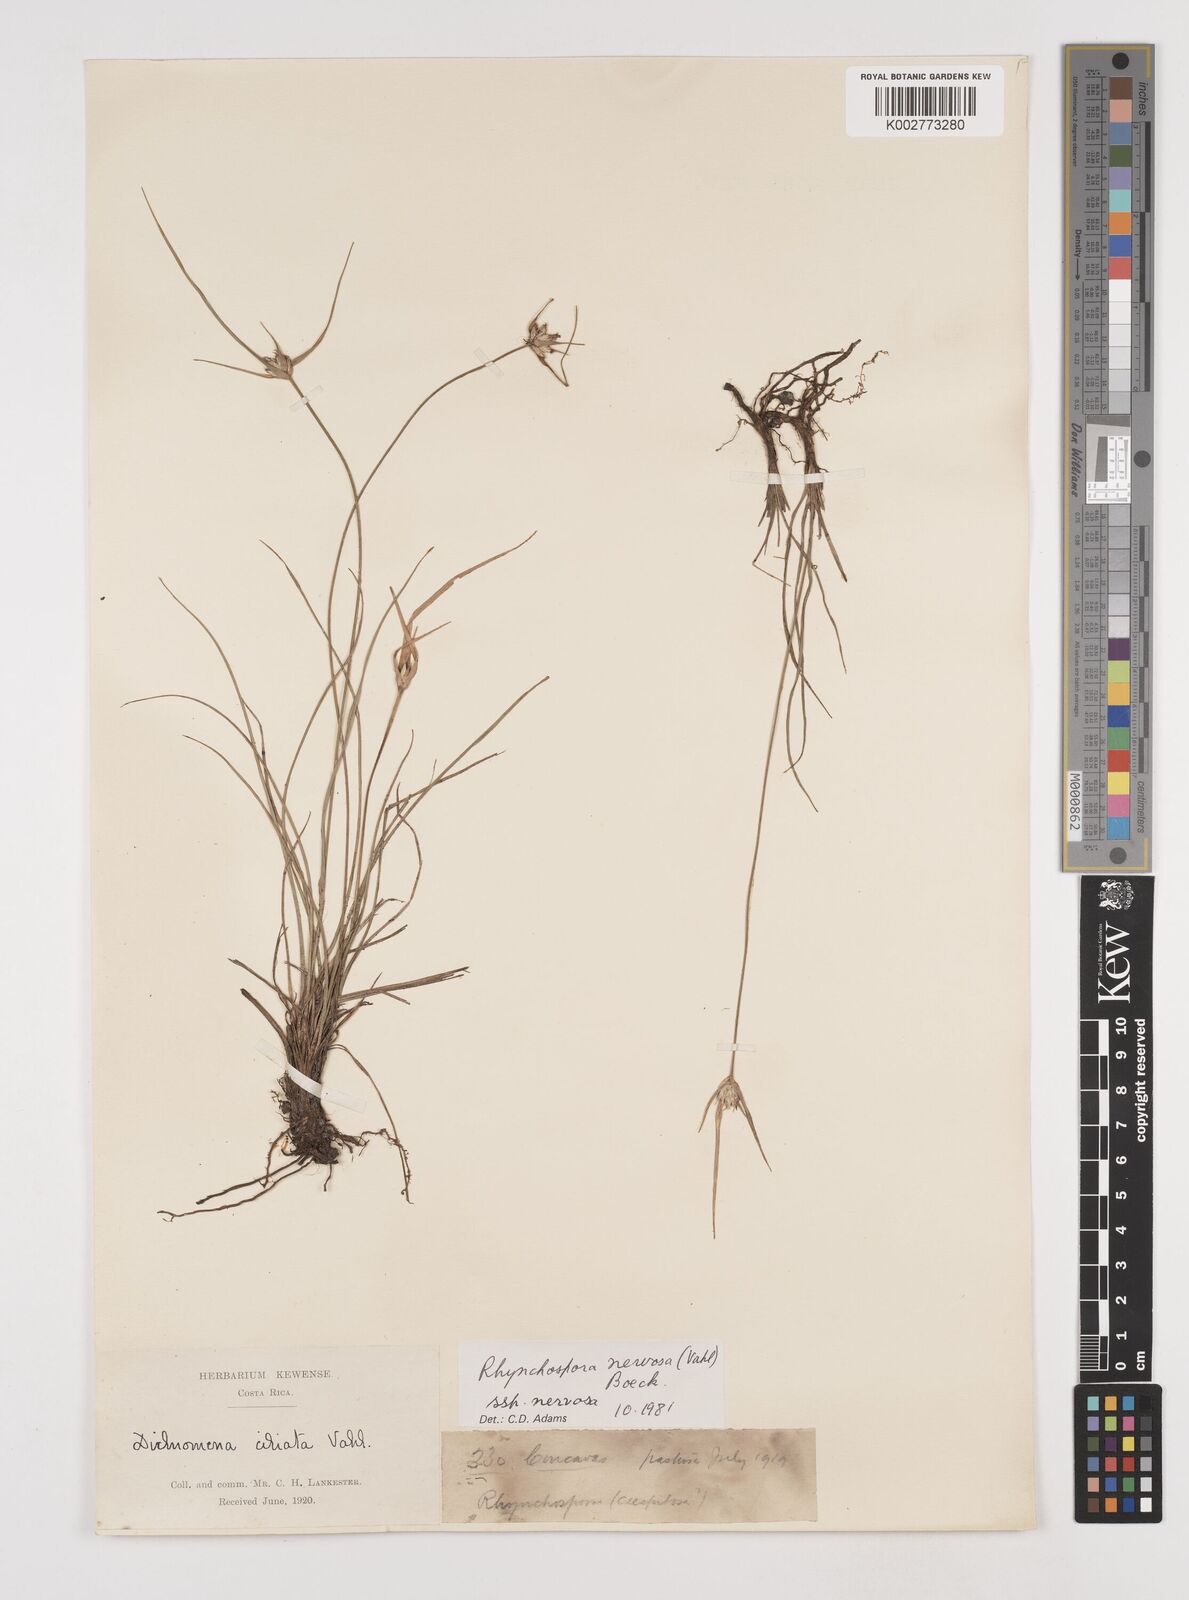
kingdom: Plantae
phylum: Tracheophyta
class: Liliopsida
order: Poales
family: Cyperaceae
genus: Rhynchospora
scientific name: Rhynchospora nervosa
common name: Star sedge
